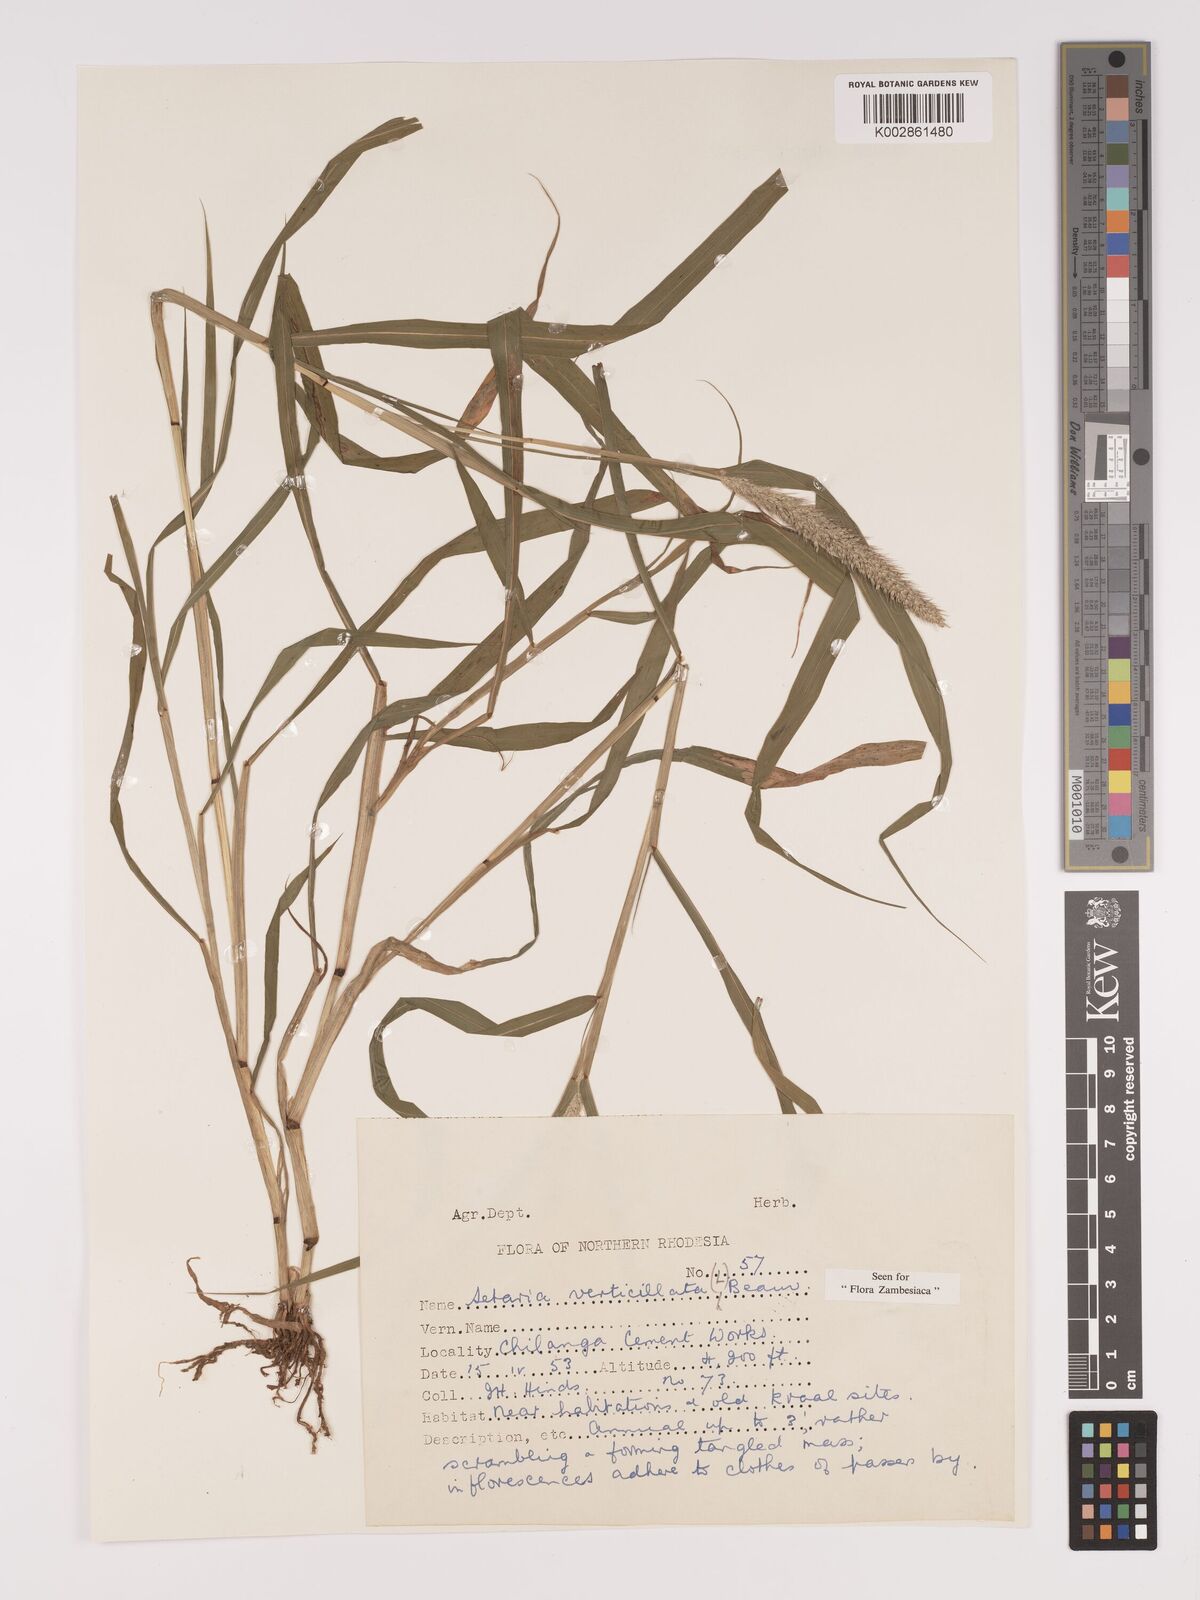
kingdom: Plantae
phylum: Tracheophyta
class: Liliopsida
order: Poales
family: Poaceae
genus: Setaria
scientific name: Setaria verticillata
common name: Hooked bristlegrass
